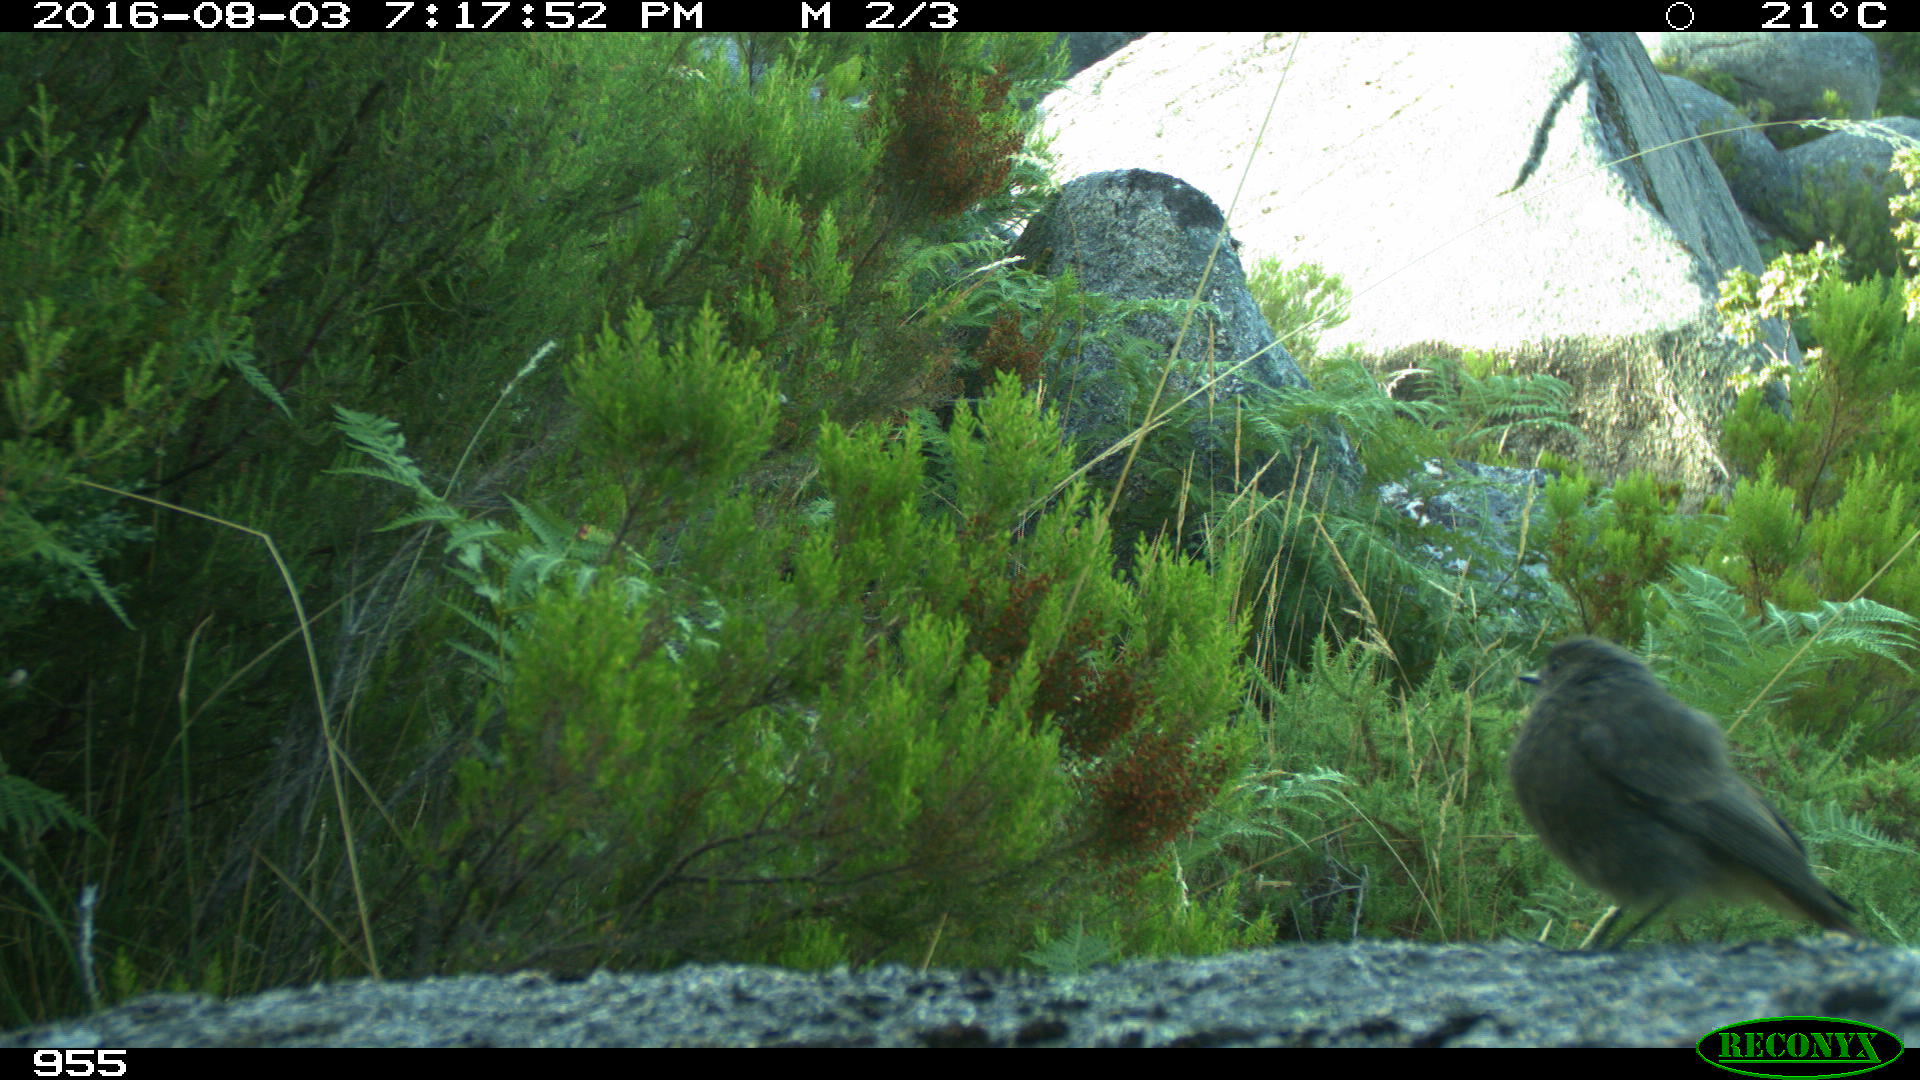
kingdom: Animalia
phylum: Chordata
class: Aves
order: Passeriformes
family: Muscicapidae
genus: Phoenicurus
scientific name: Phoenicurus ochruros
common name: Black redstart
